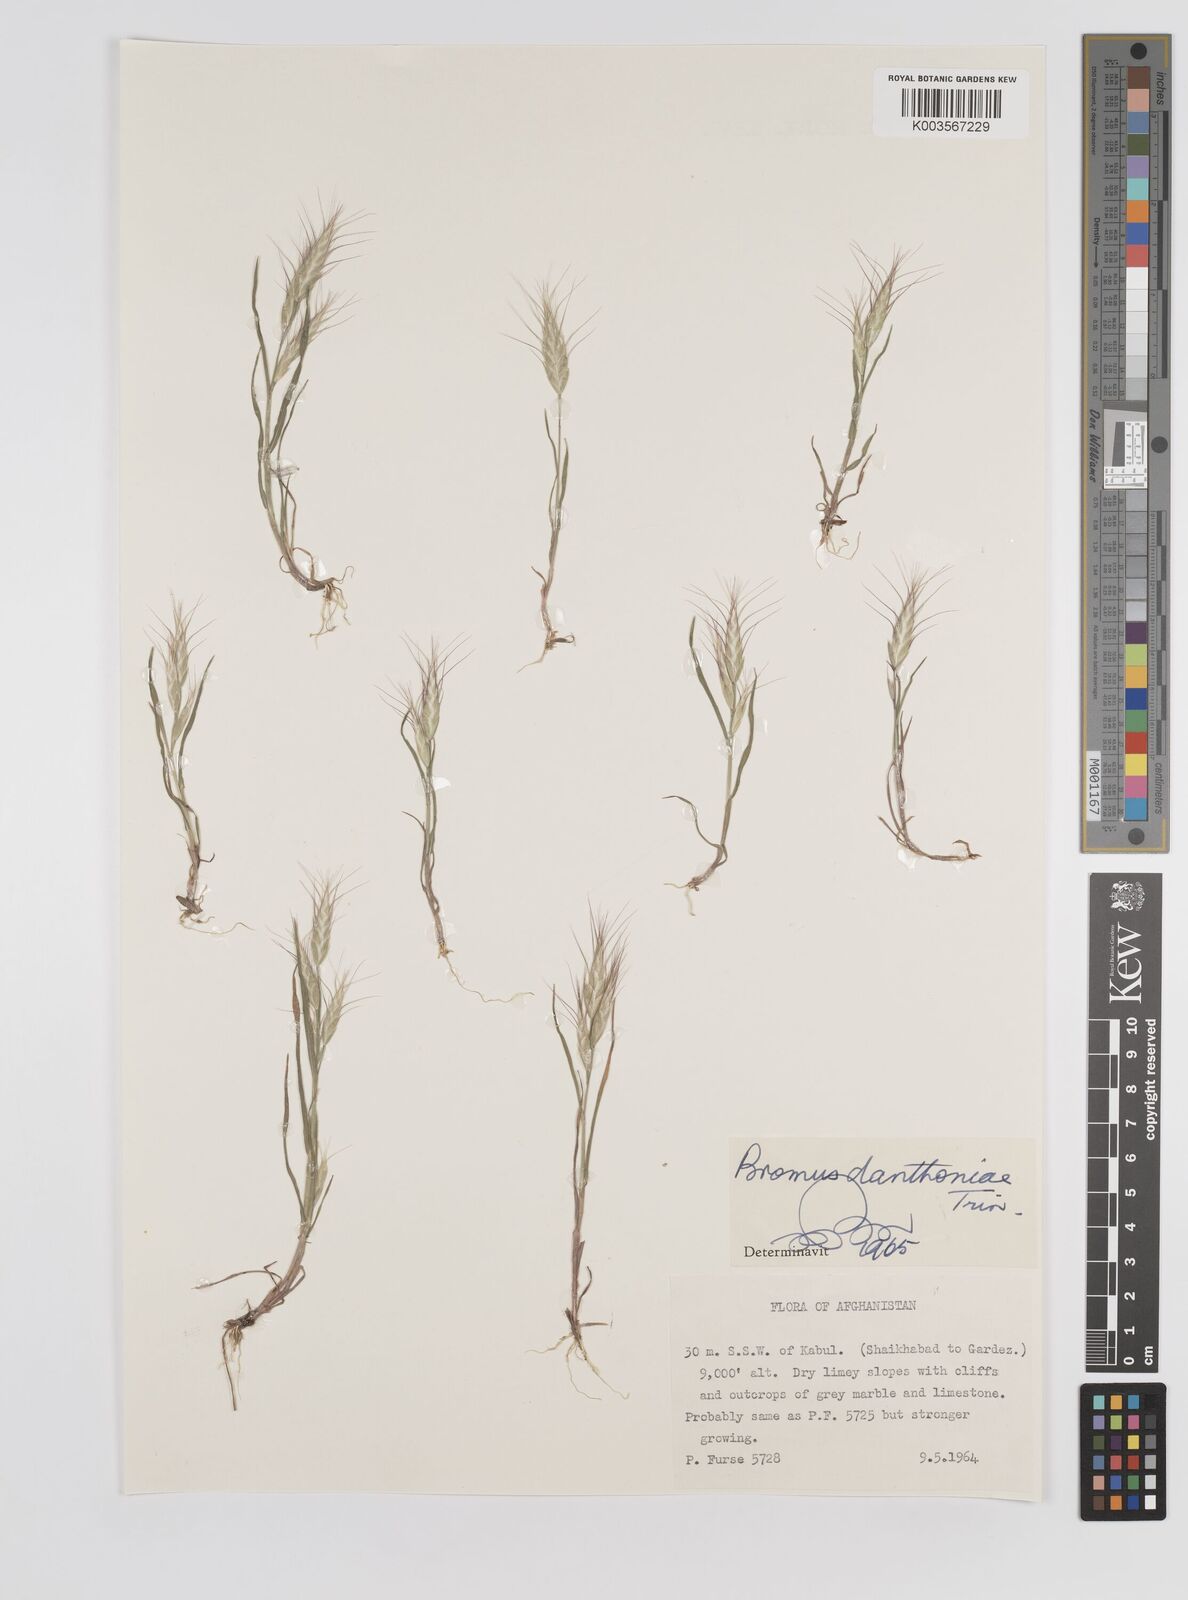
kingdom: Plantae
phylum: Tracheophyta
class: Liliopsida
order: Poales
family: Poaceae
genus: Bromus
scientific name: Bromus danthoniae
